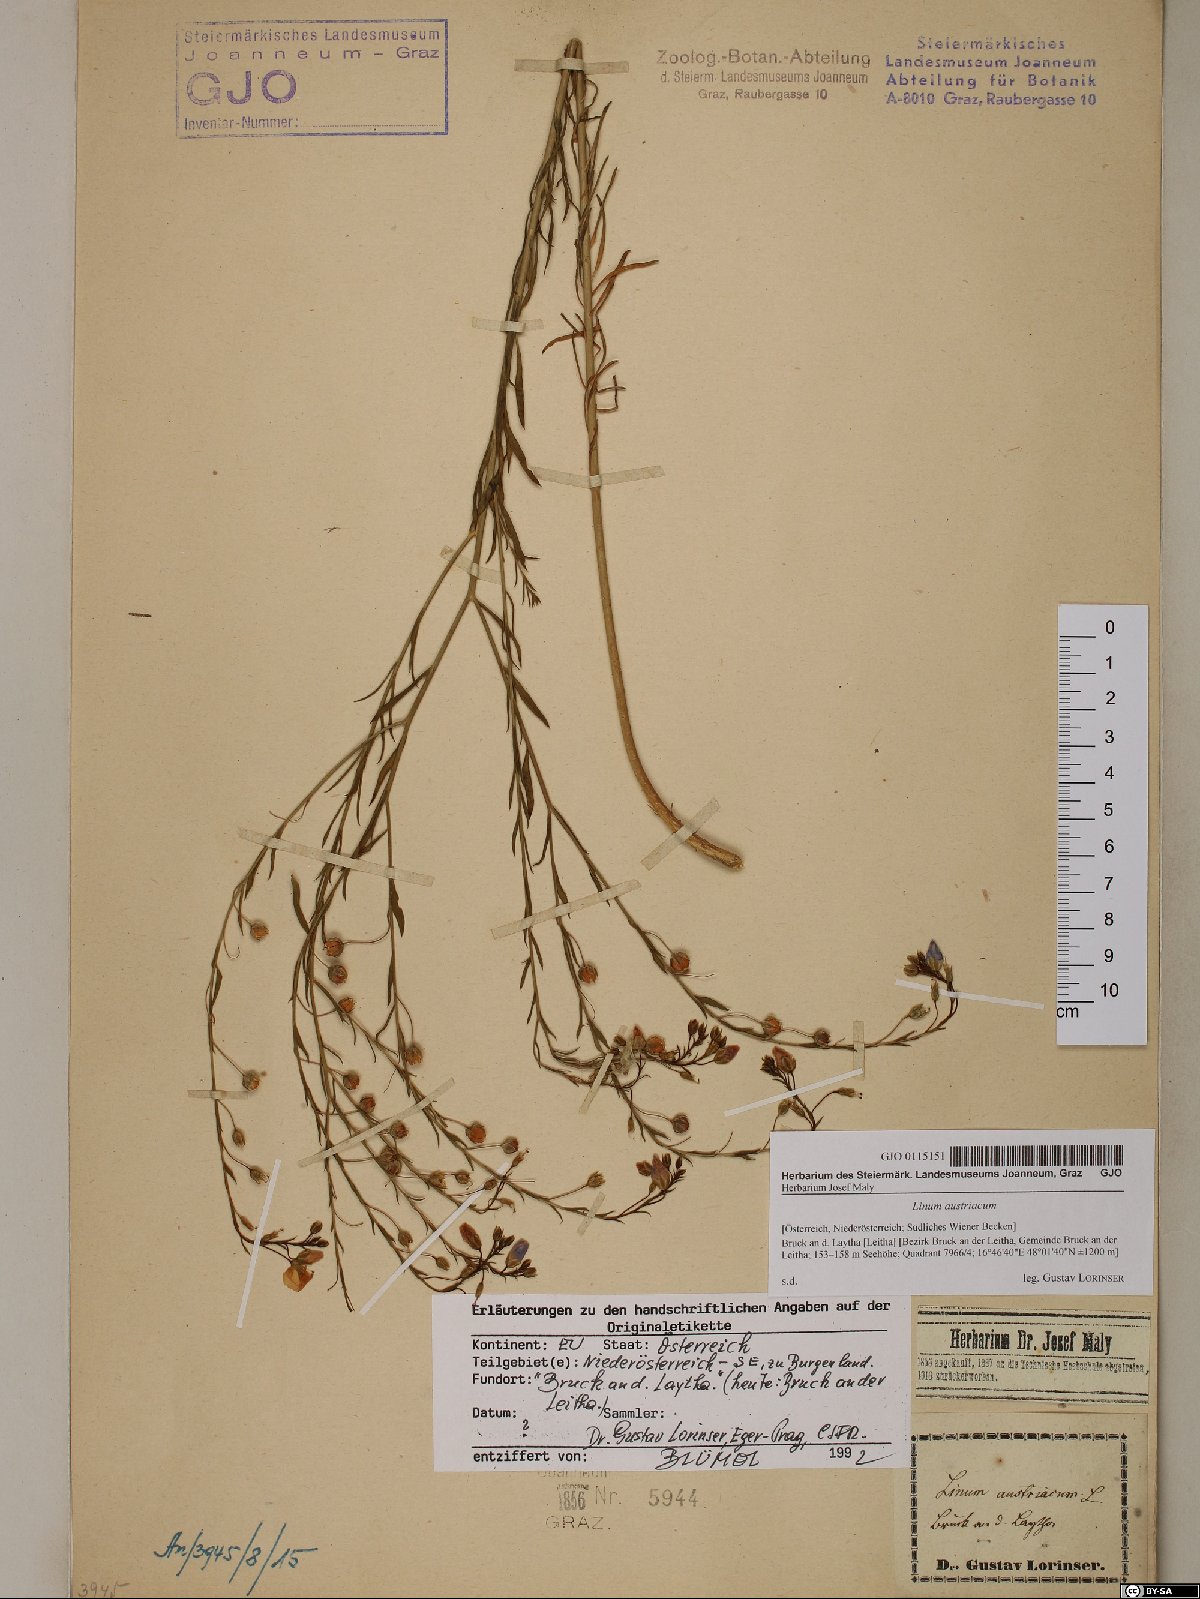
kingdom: Plantae
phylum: Tracheophyta
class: Magnoliopsida
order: Malpighiales
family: Linaceae
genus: Linum
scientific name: Linum austriacum
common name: Austrian flax
